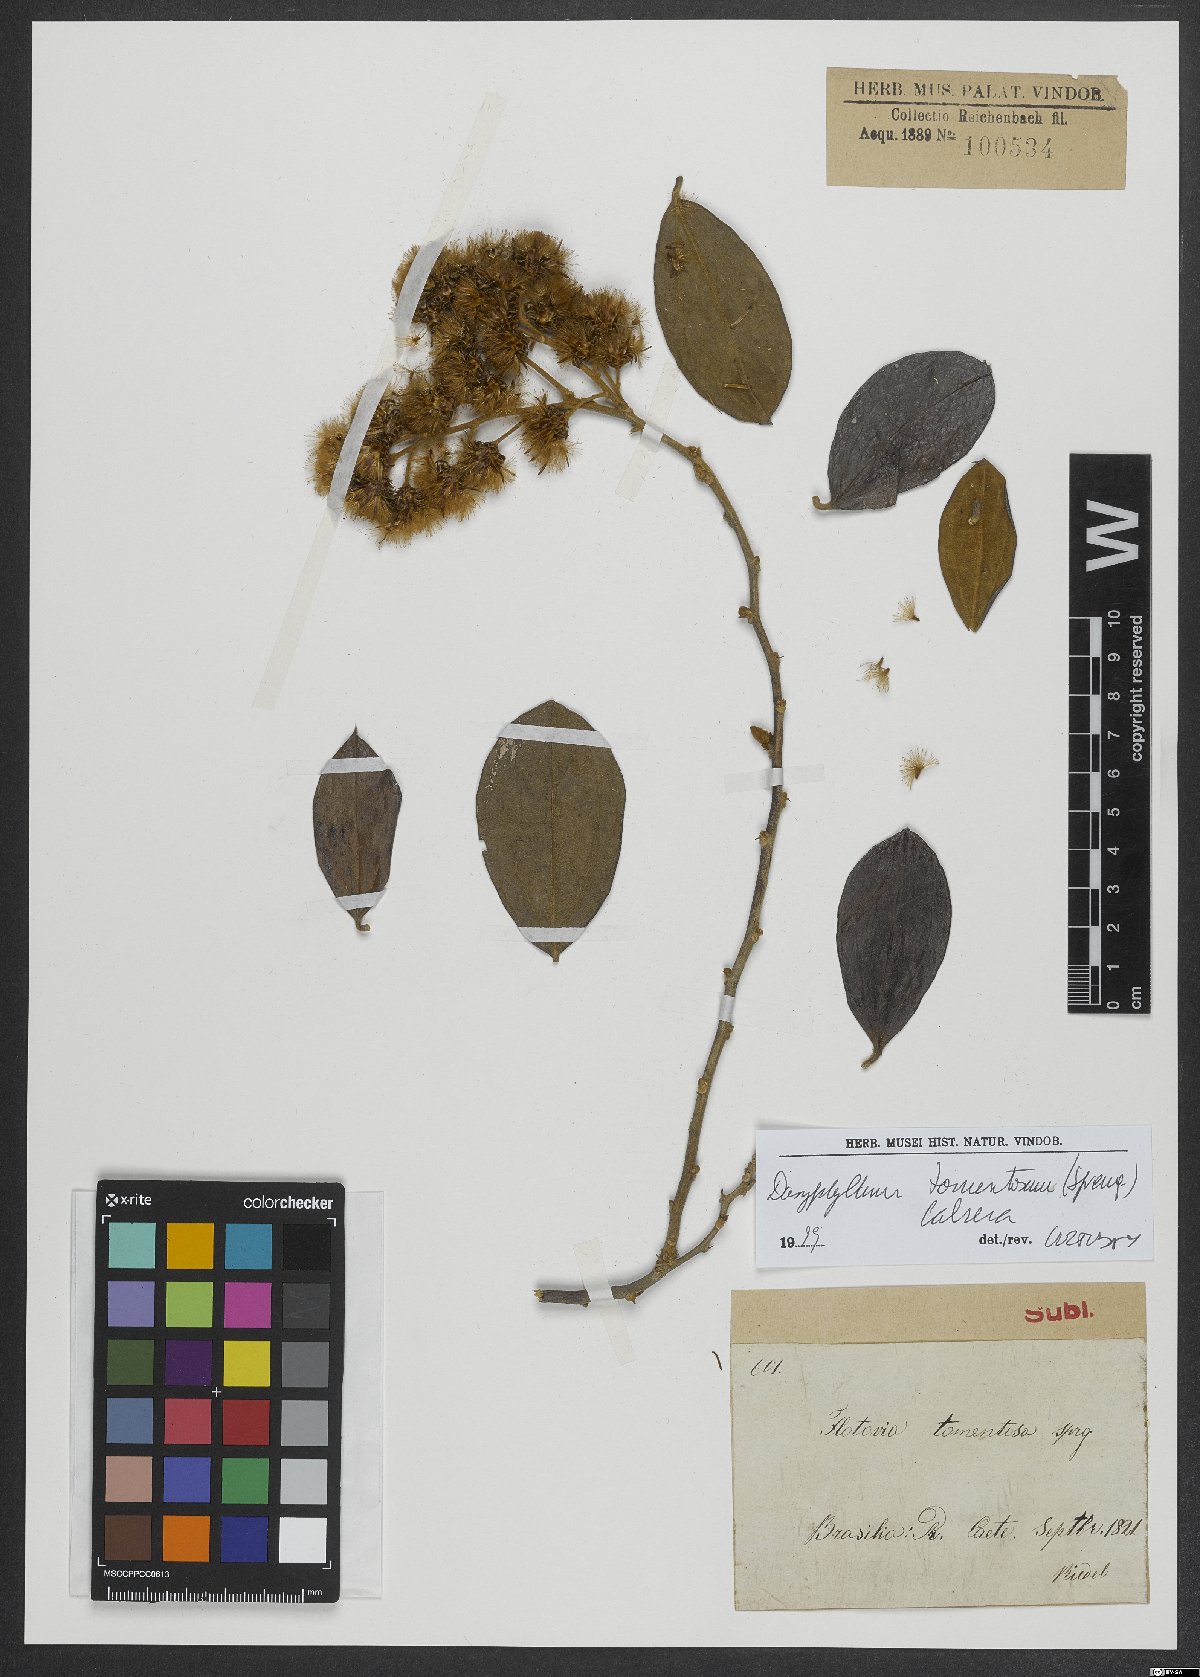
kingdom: Plantae
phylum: Tracheophyta
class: Magnoliopsida
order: Asterales
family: Asteraceae
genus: Dasyphyllum
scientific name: Dasyphyllum tomentosum
